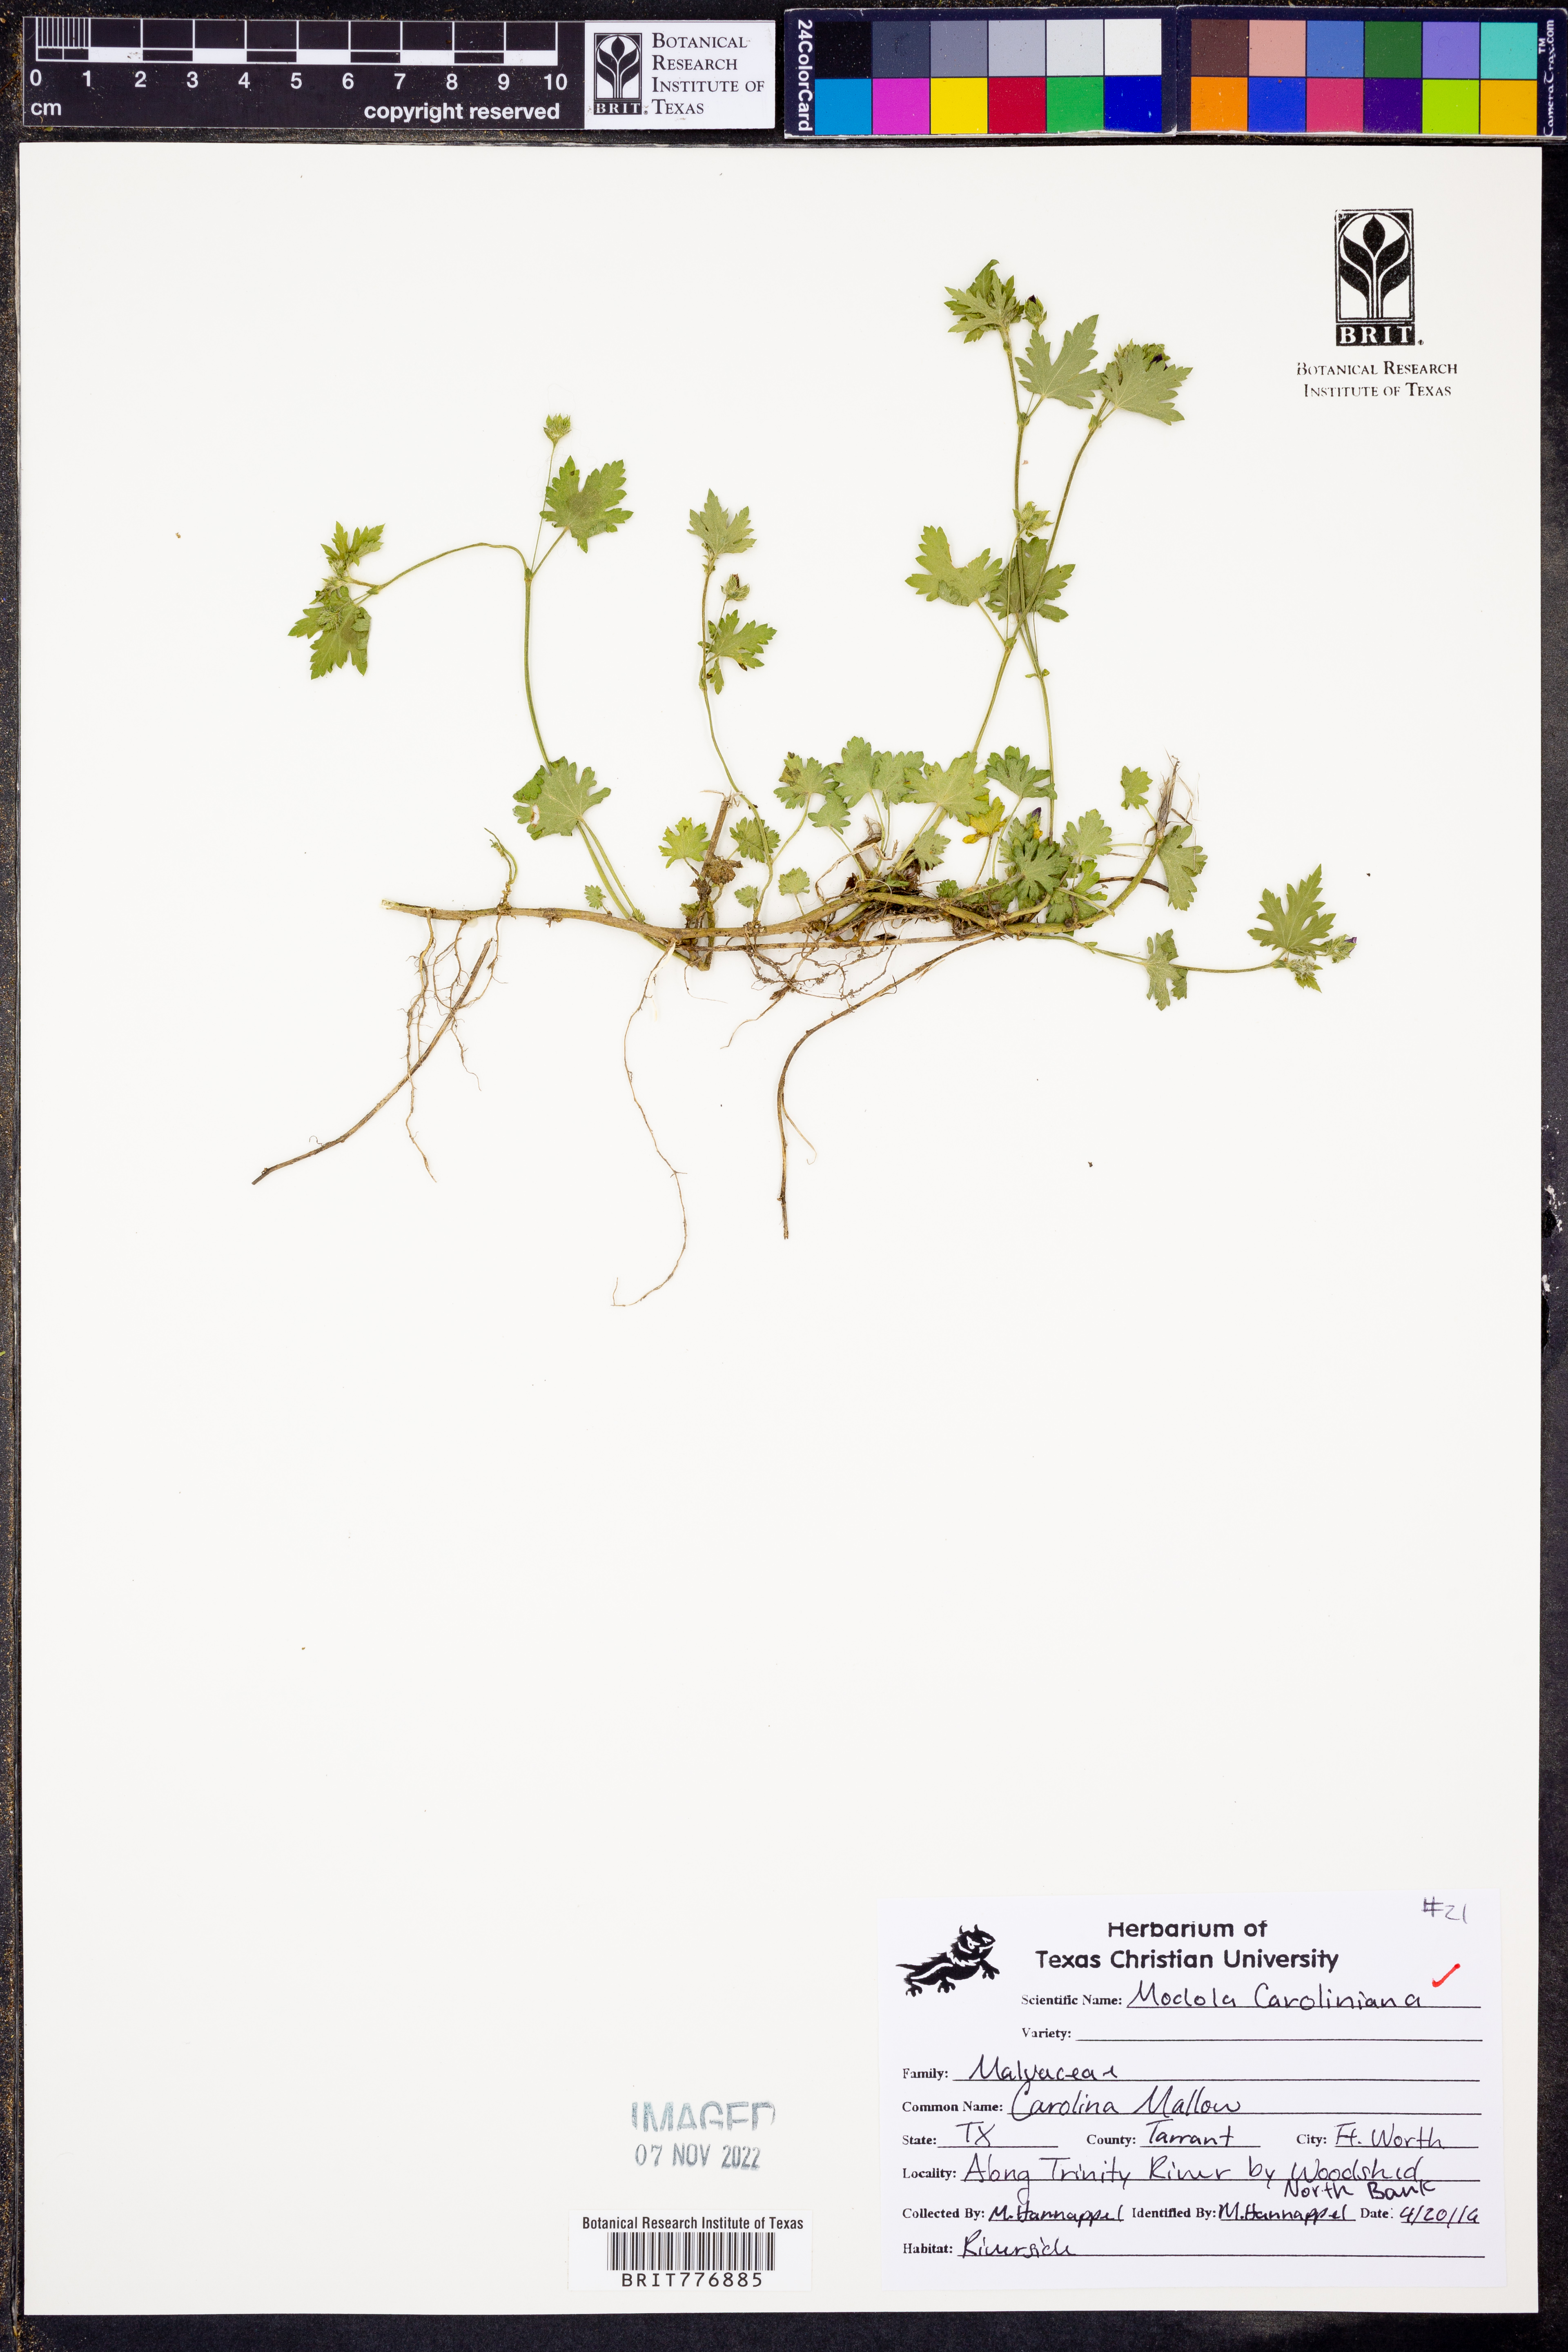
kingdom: Plantae
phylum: Tracheophyta
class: Magnoliopsida
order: Malvales
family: Malvaceae
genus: Modiola
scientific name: Modiola caroliniana
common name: Carolina bristlemallow
